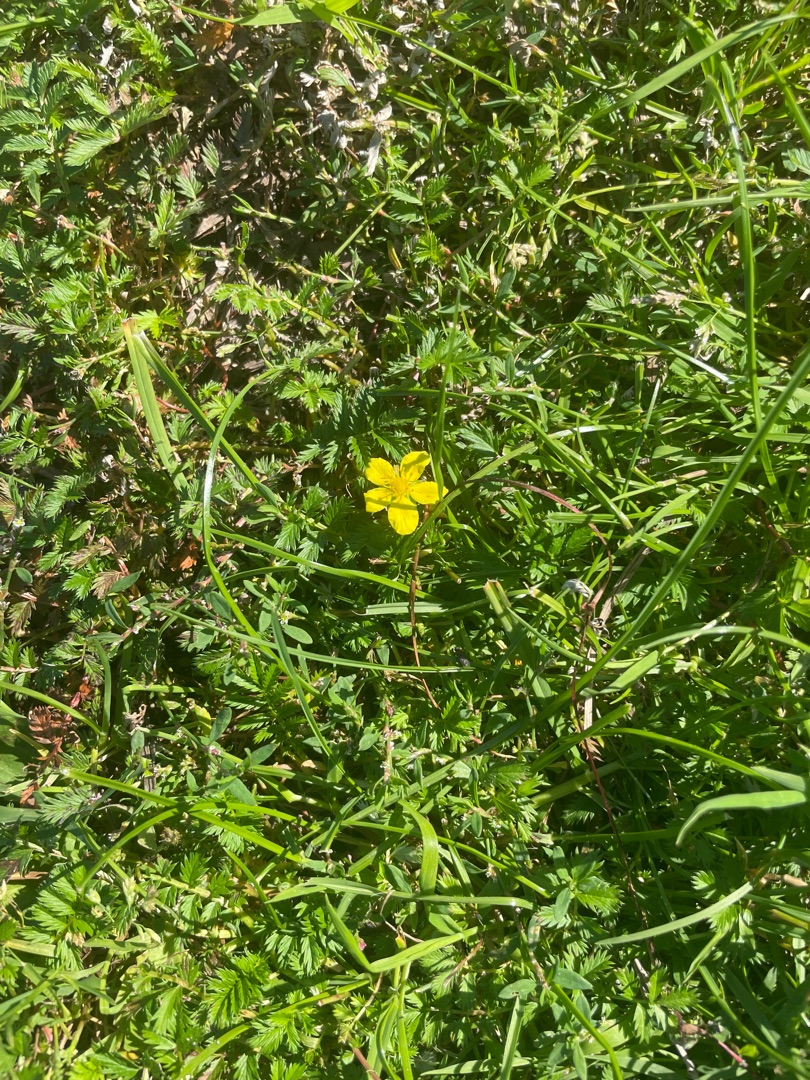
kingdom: Plantae
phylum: Tracheophyta
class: Magnoliopsida
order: Rosales
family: Rosaceae
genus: Argentina
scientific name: Argentina anserina
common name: Gåsepotentil
